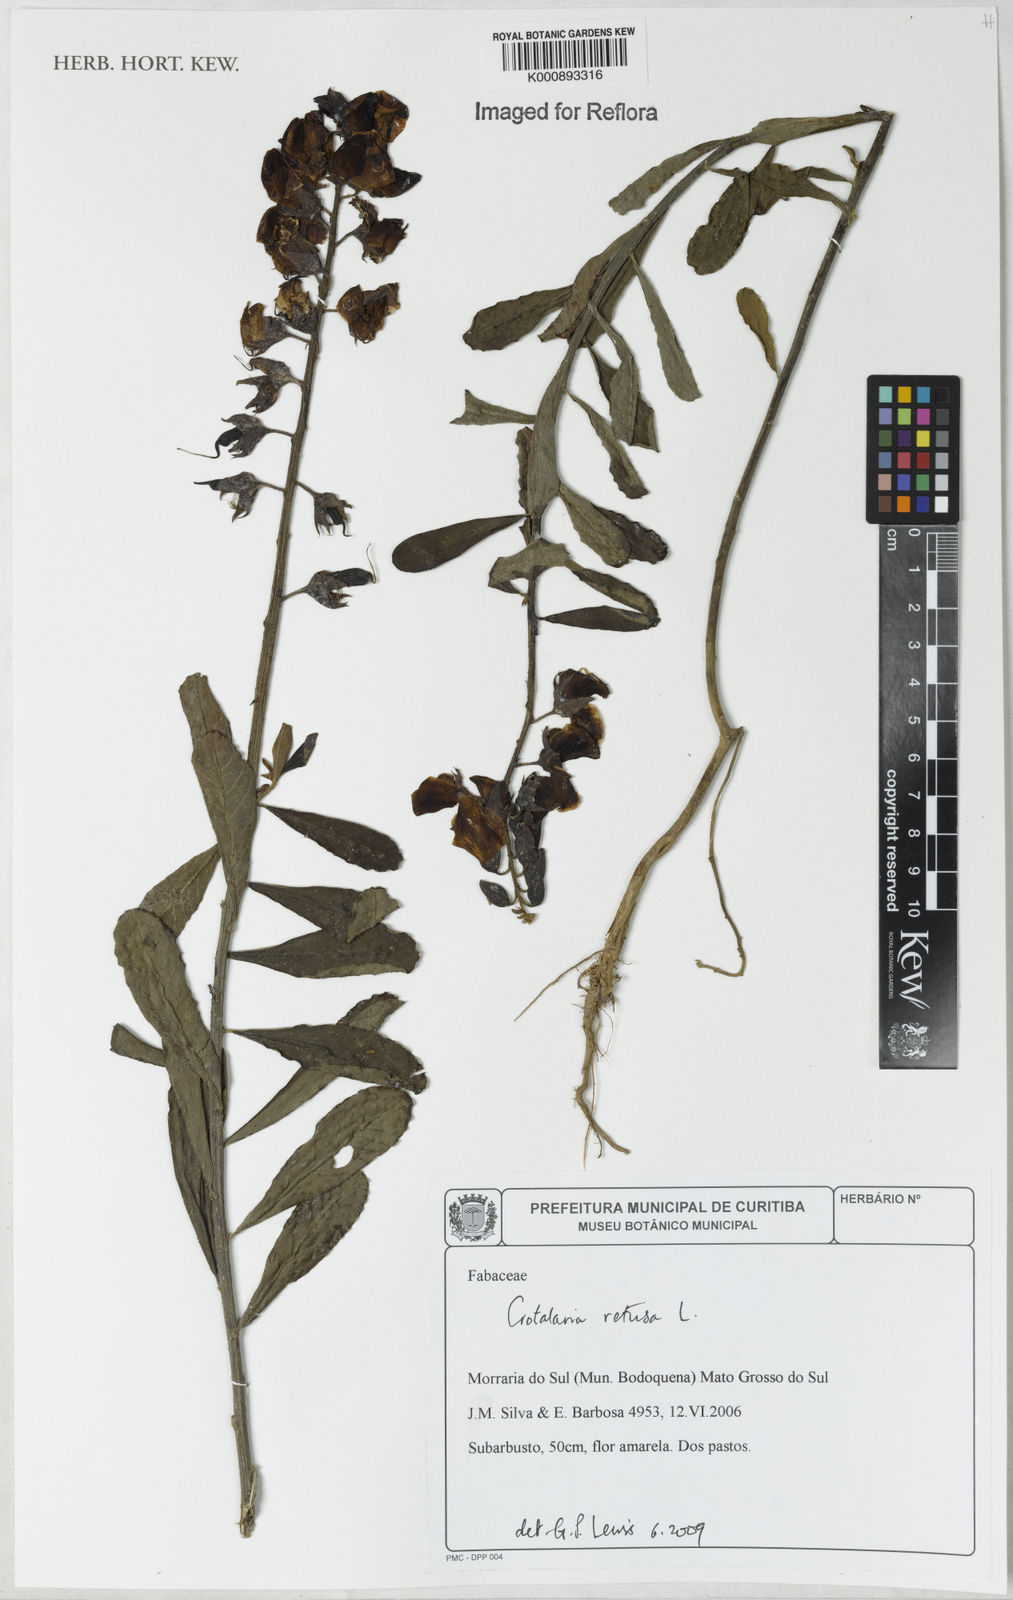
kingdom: Plantae
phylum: Tracheophyta
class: Magnoliopsida
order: Fabales
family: Fabaceae
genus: Crotalaria
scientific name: Crotalaria retusa
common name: Rattleweed
